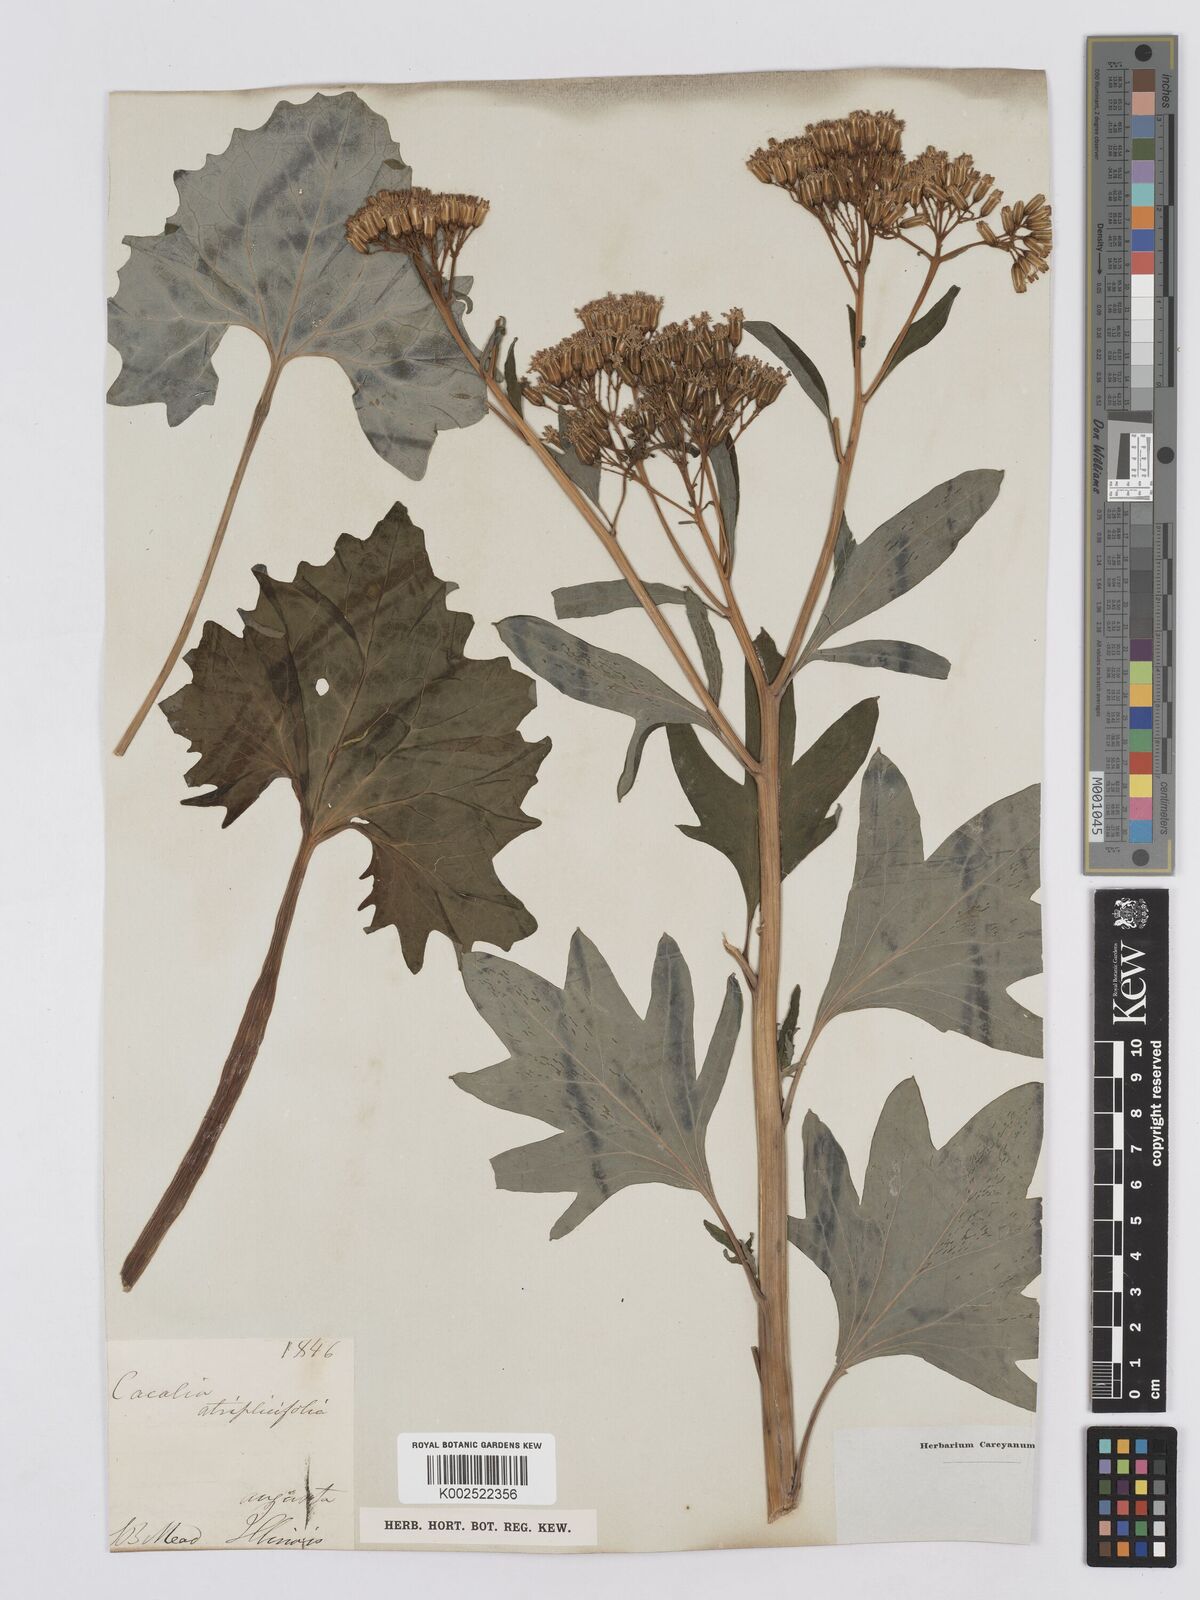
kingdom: Plantae
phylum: Tracheophyta
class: Magnoliopsida
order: Asterales
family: Asteraceae
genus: Arnoglossum
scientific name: Arnoglossum atriplicifolium
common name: Pale indian-plantain
